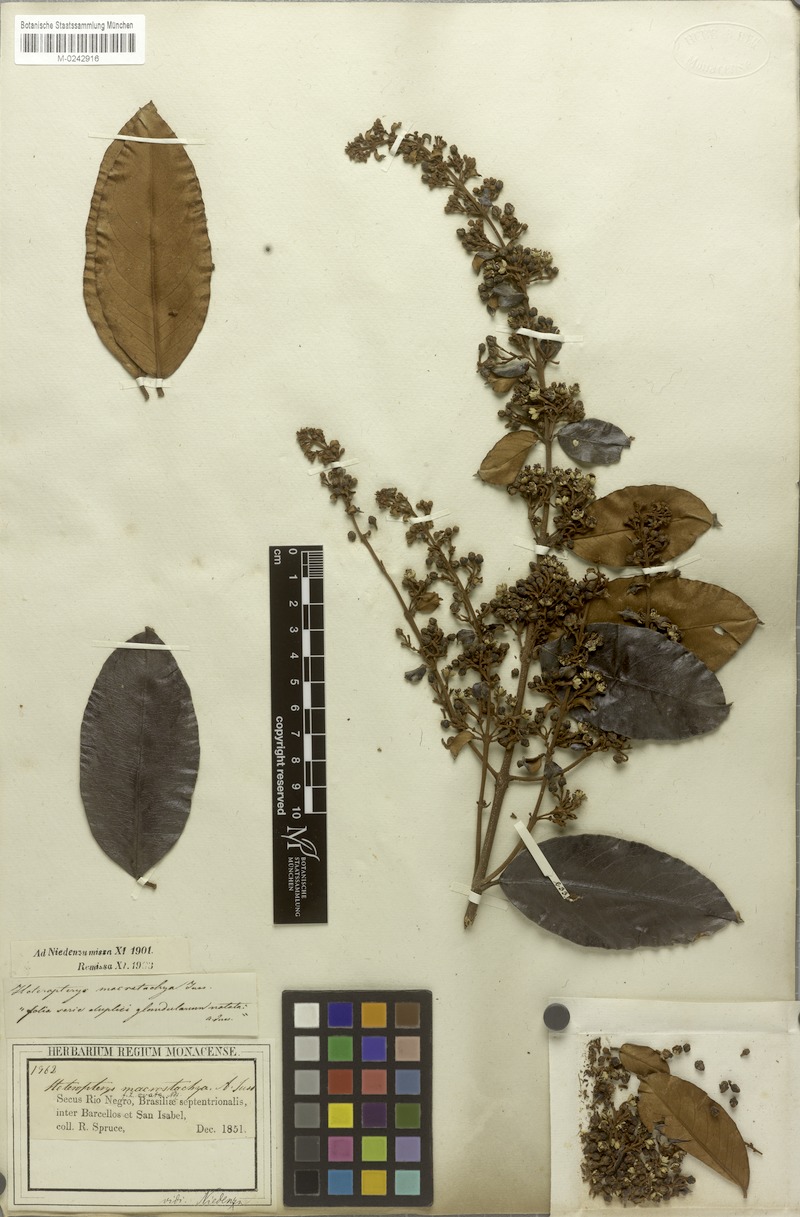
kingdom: Plantae
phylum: Tracheophyta
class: Magnoliopsida
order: Malpighiales
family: Malpighiaceae
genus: Heteropterys
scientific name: Heteropterys macrostachya
